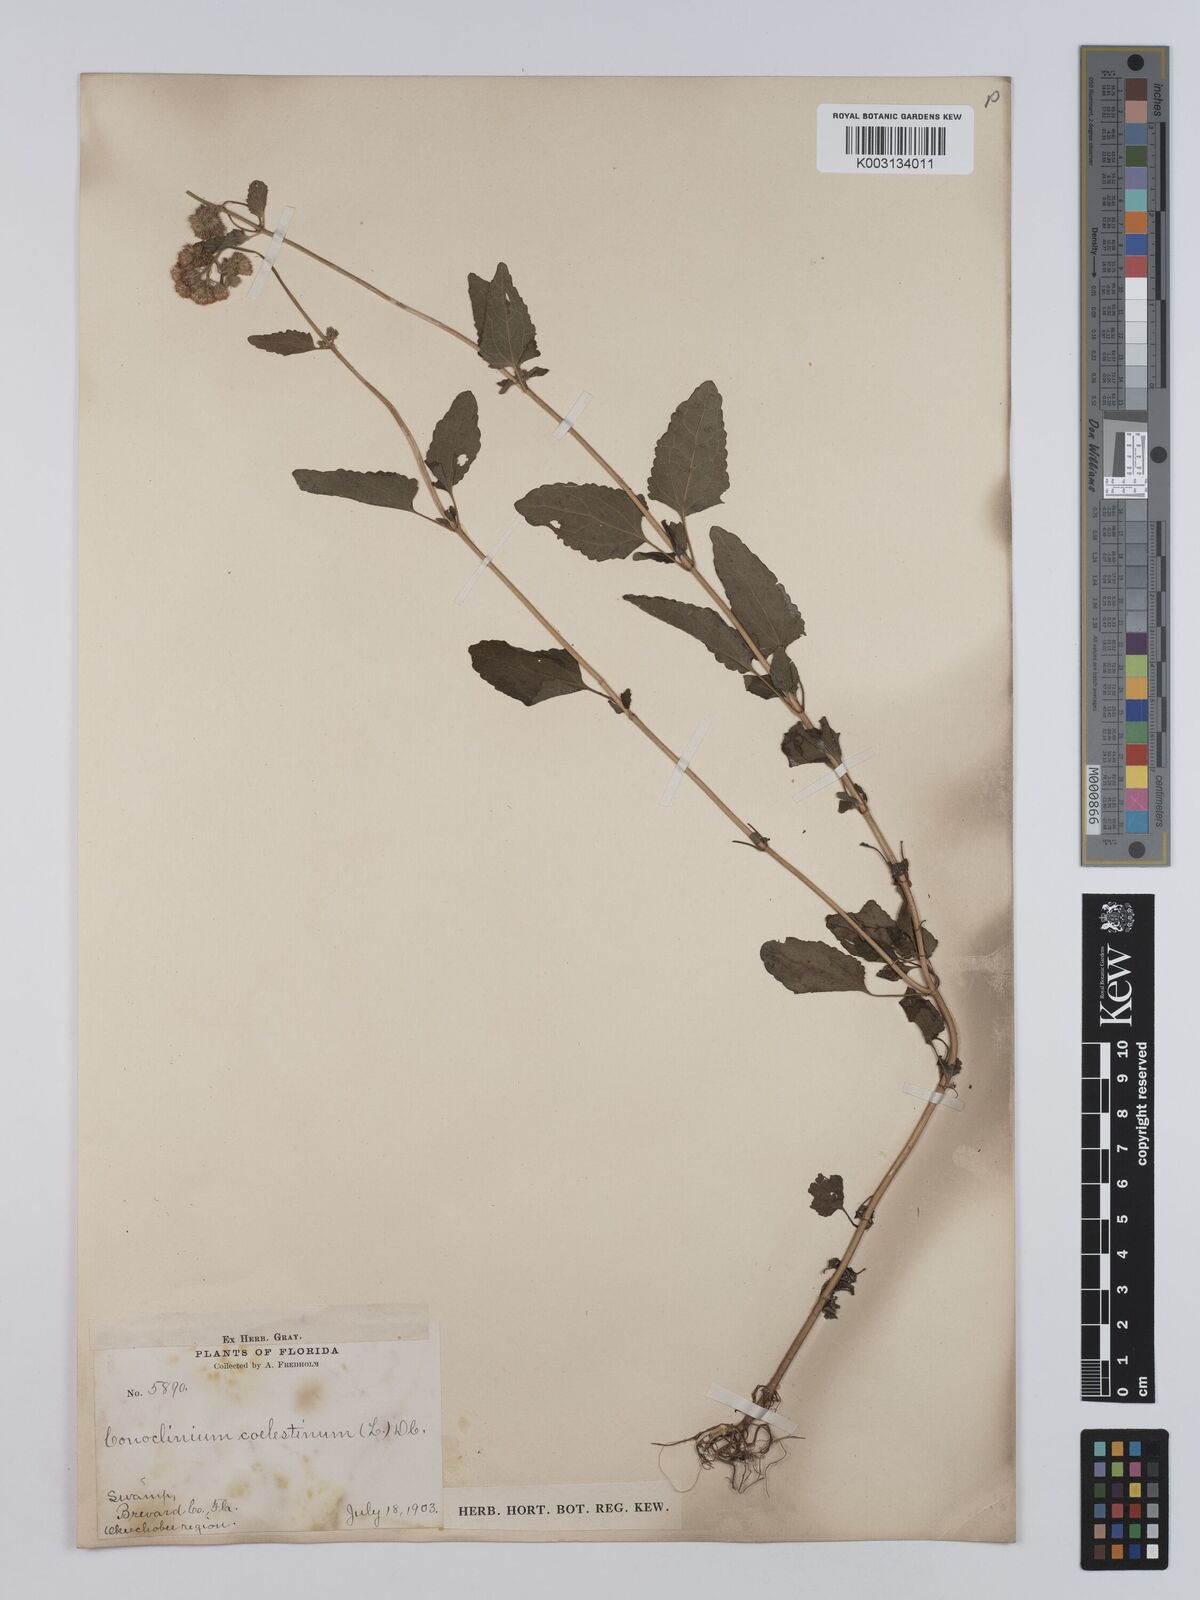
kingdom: Plantae
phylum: Tracheophyta
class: Magnoliopsida
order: Asterales
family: Asteraceae
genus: Conoclinium
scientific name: Conoclinium coelestinum
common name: Blue mistflower
